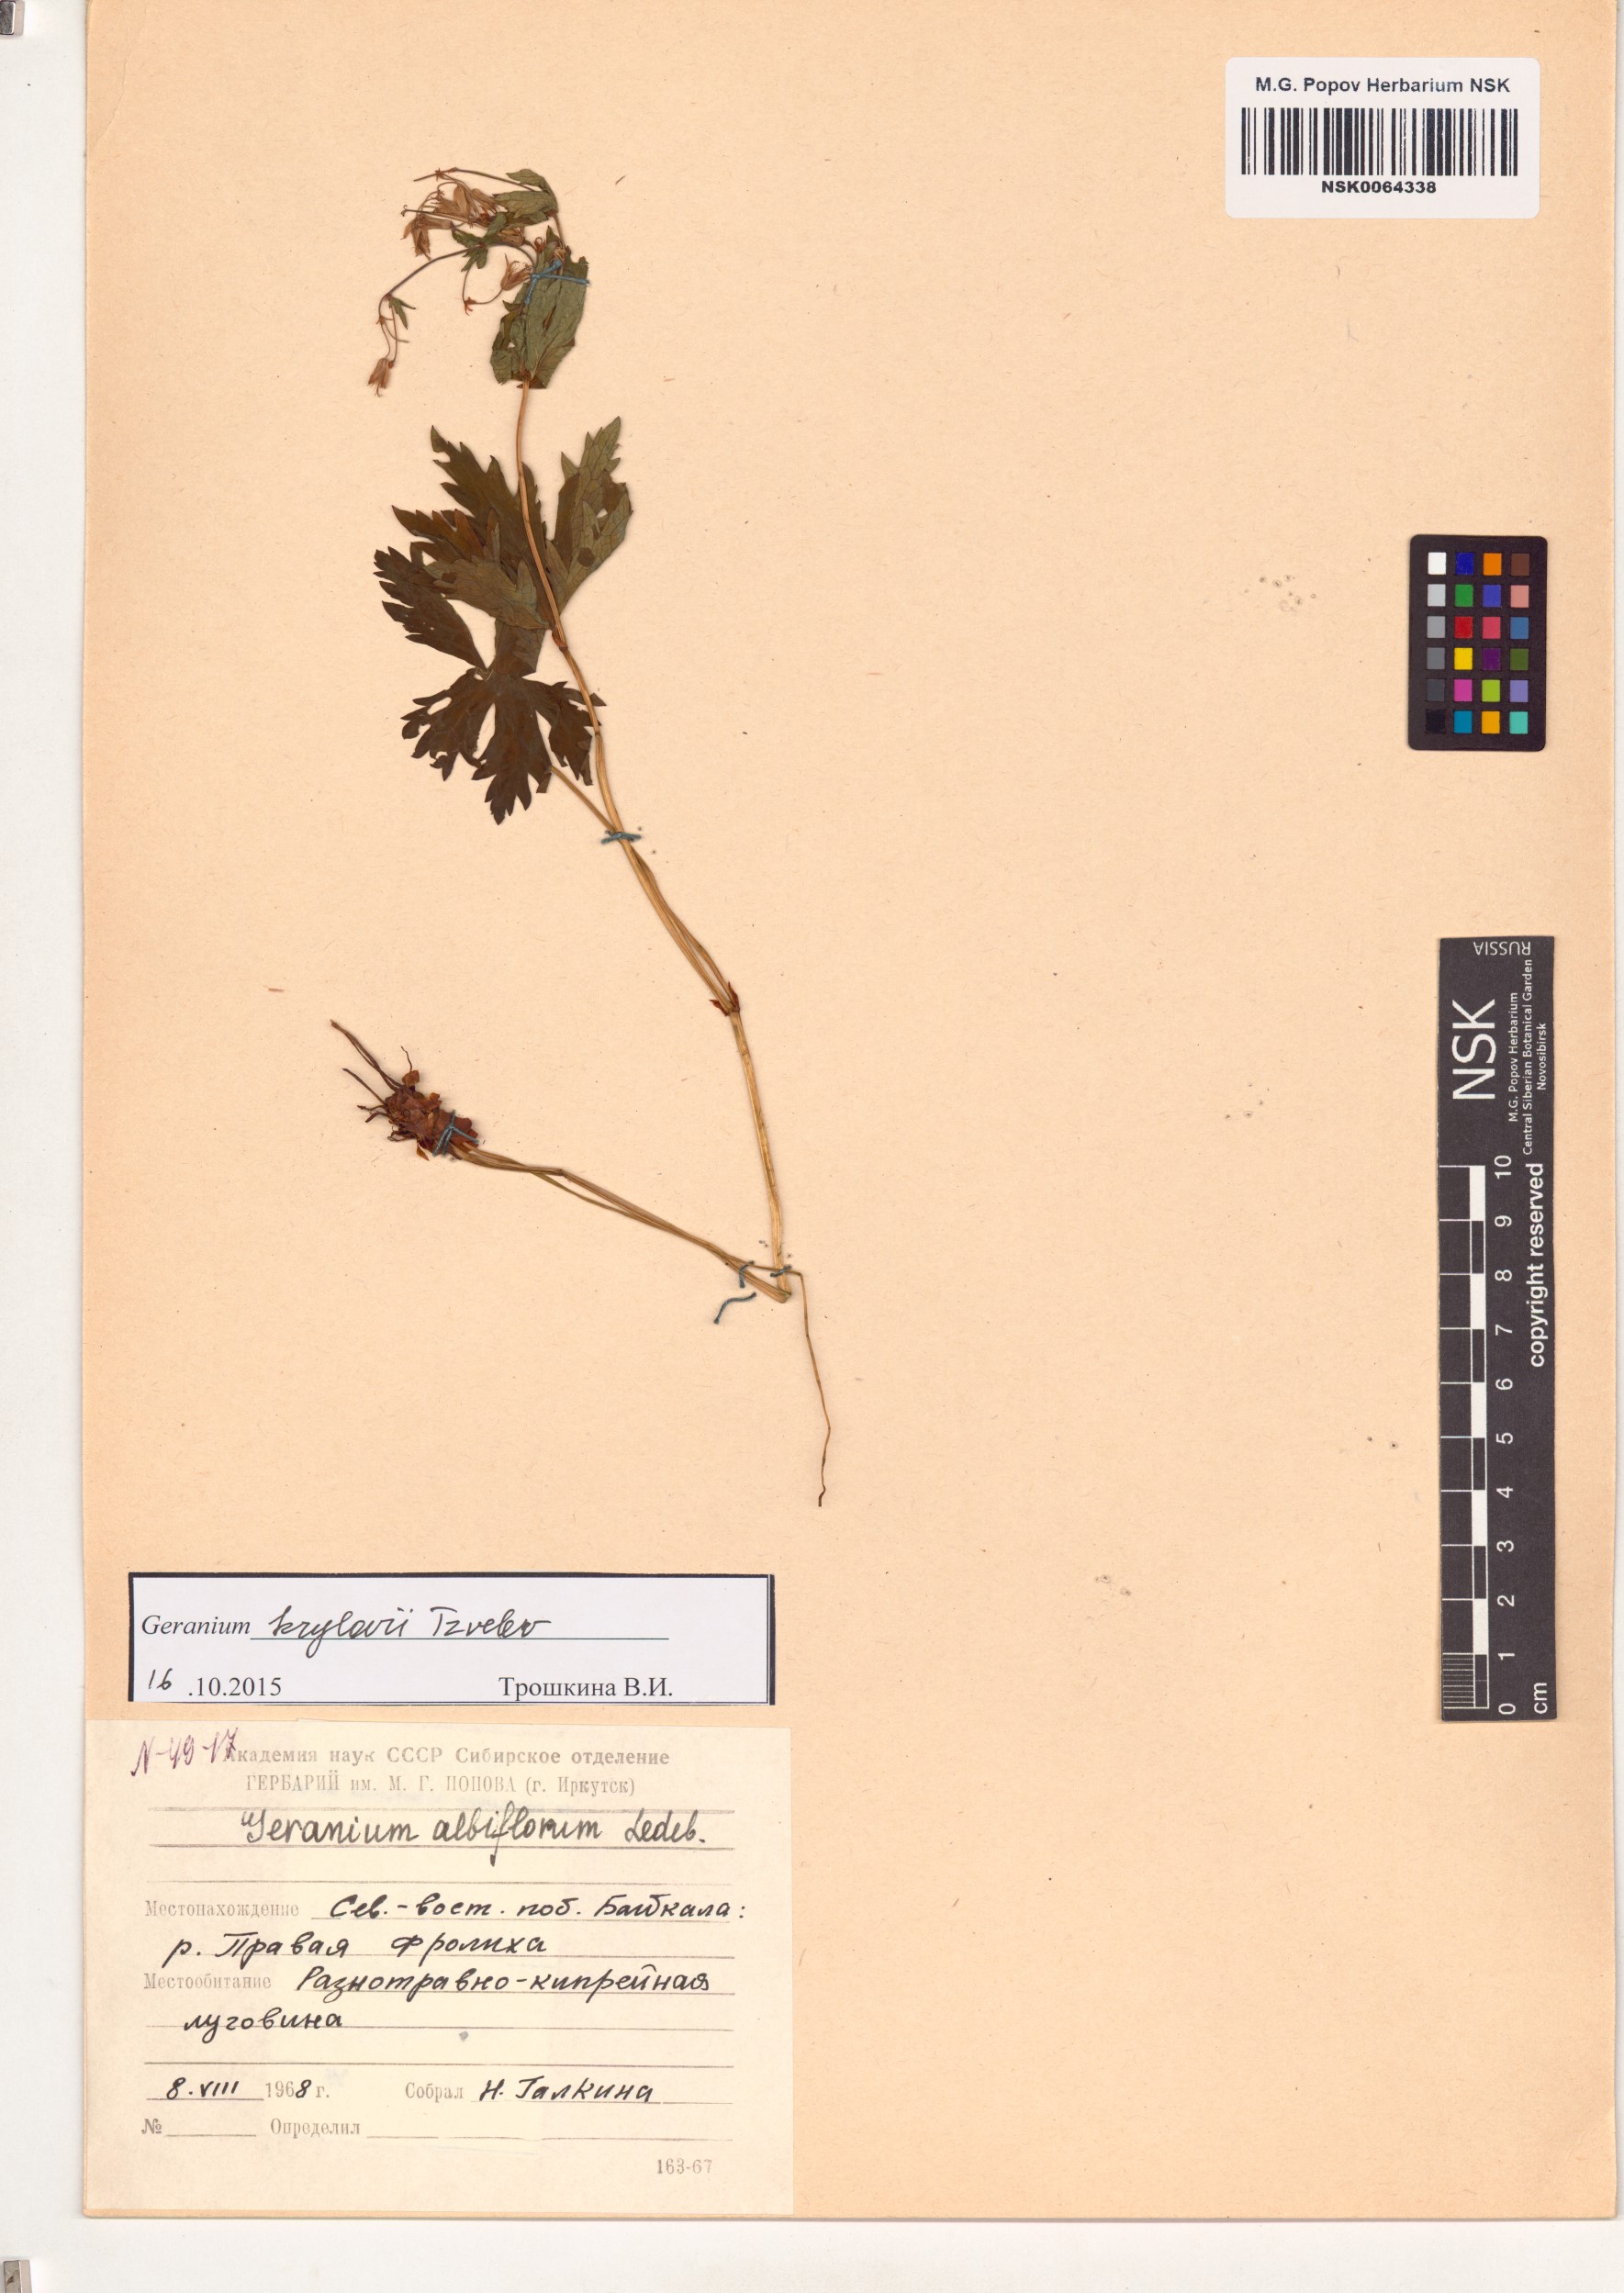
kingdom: Plantae
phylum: Tracheophyta
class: Magnoliopsida
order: Geraniales
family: Geraniaceae
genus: Geranium
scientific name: Geranium sylvaticum
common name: Wood crane's-bill
